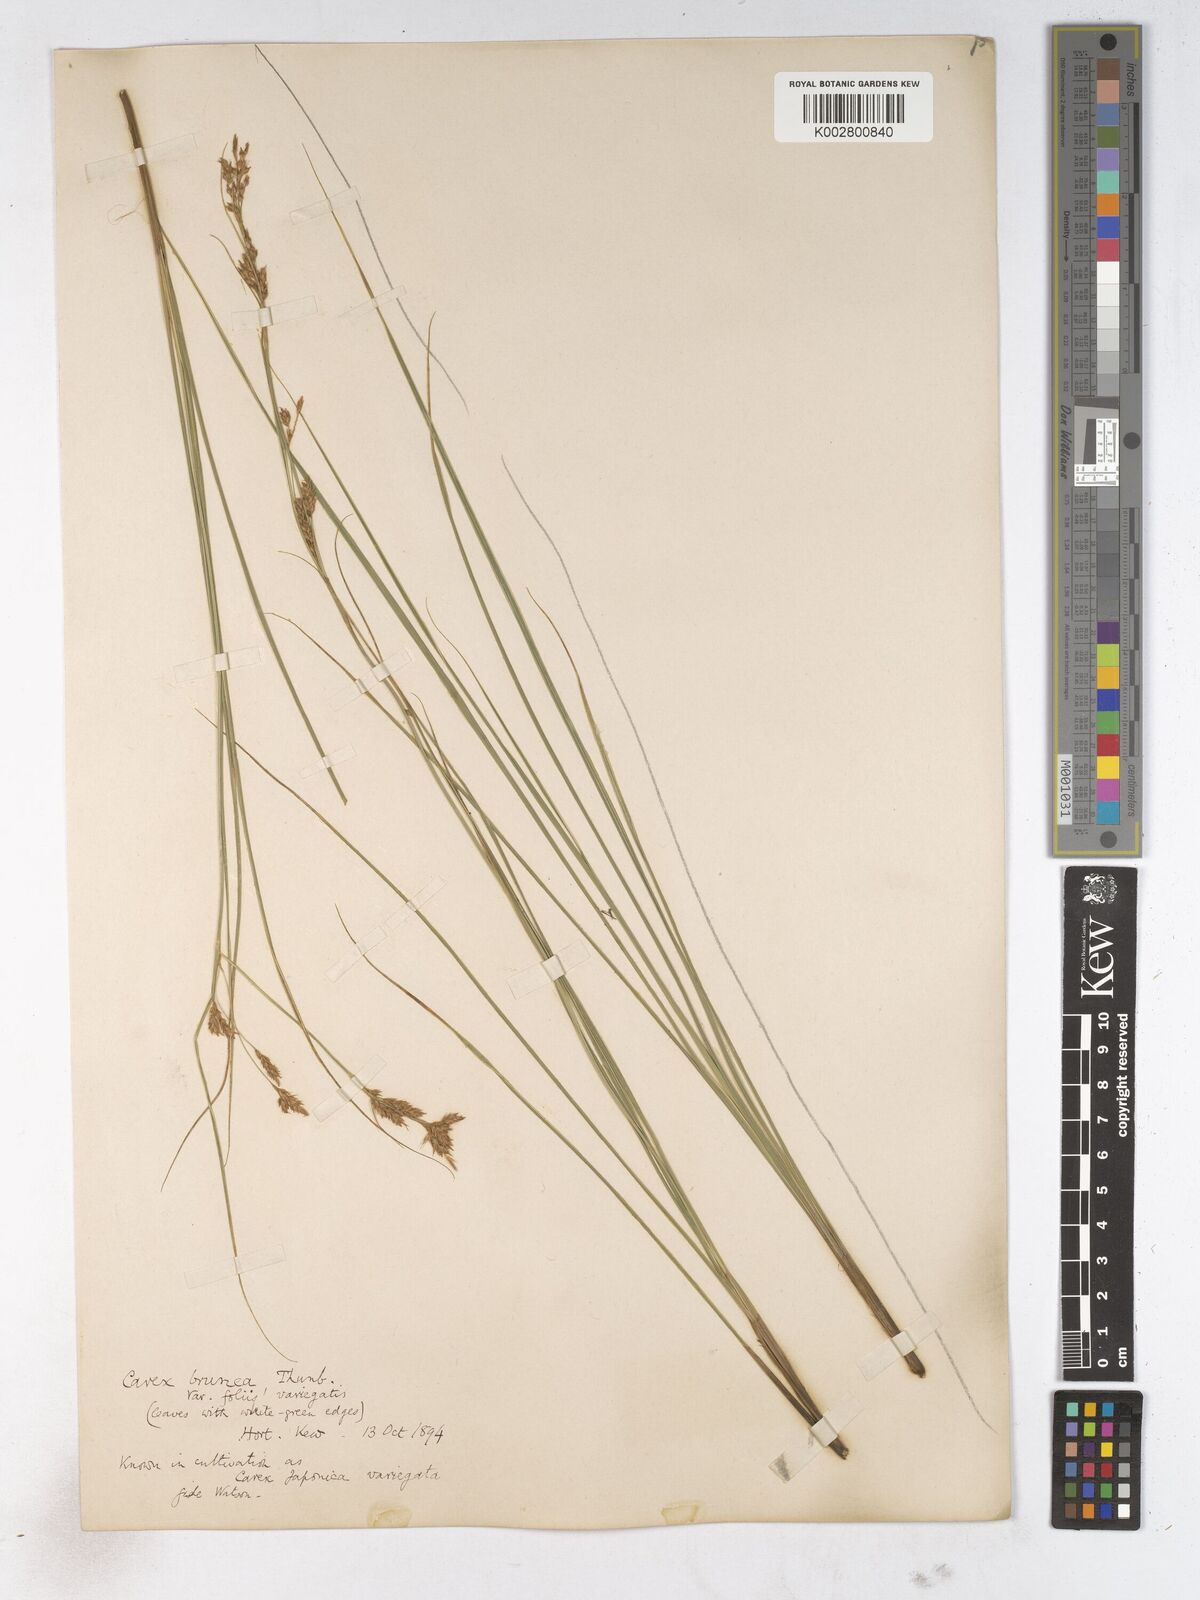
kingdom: Plantae
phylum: Tracheophyta
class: Liliopsida
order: Poales
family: Cyperaceae
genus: Carex
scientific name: Carex breviculmis
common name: Asian shortstem sedge
